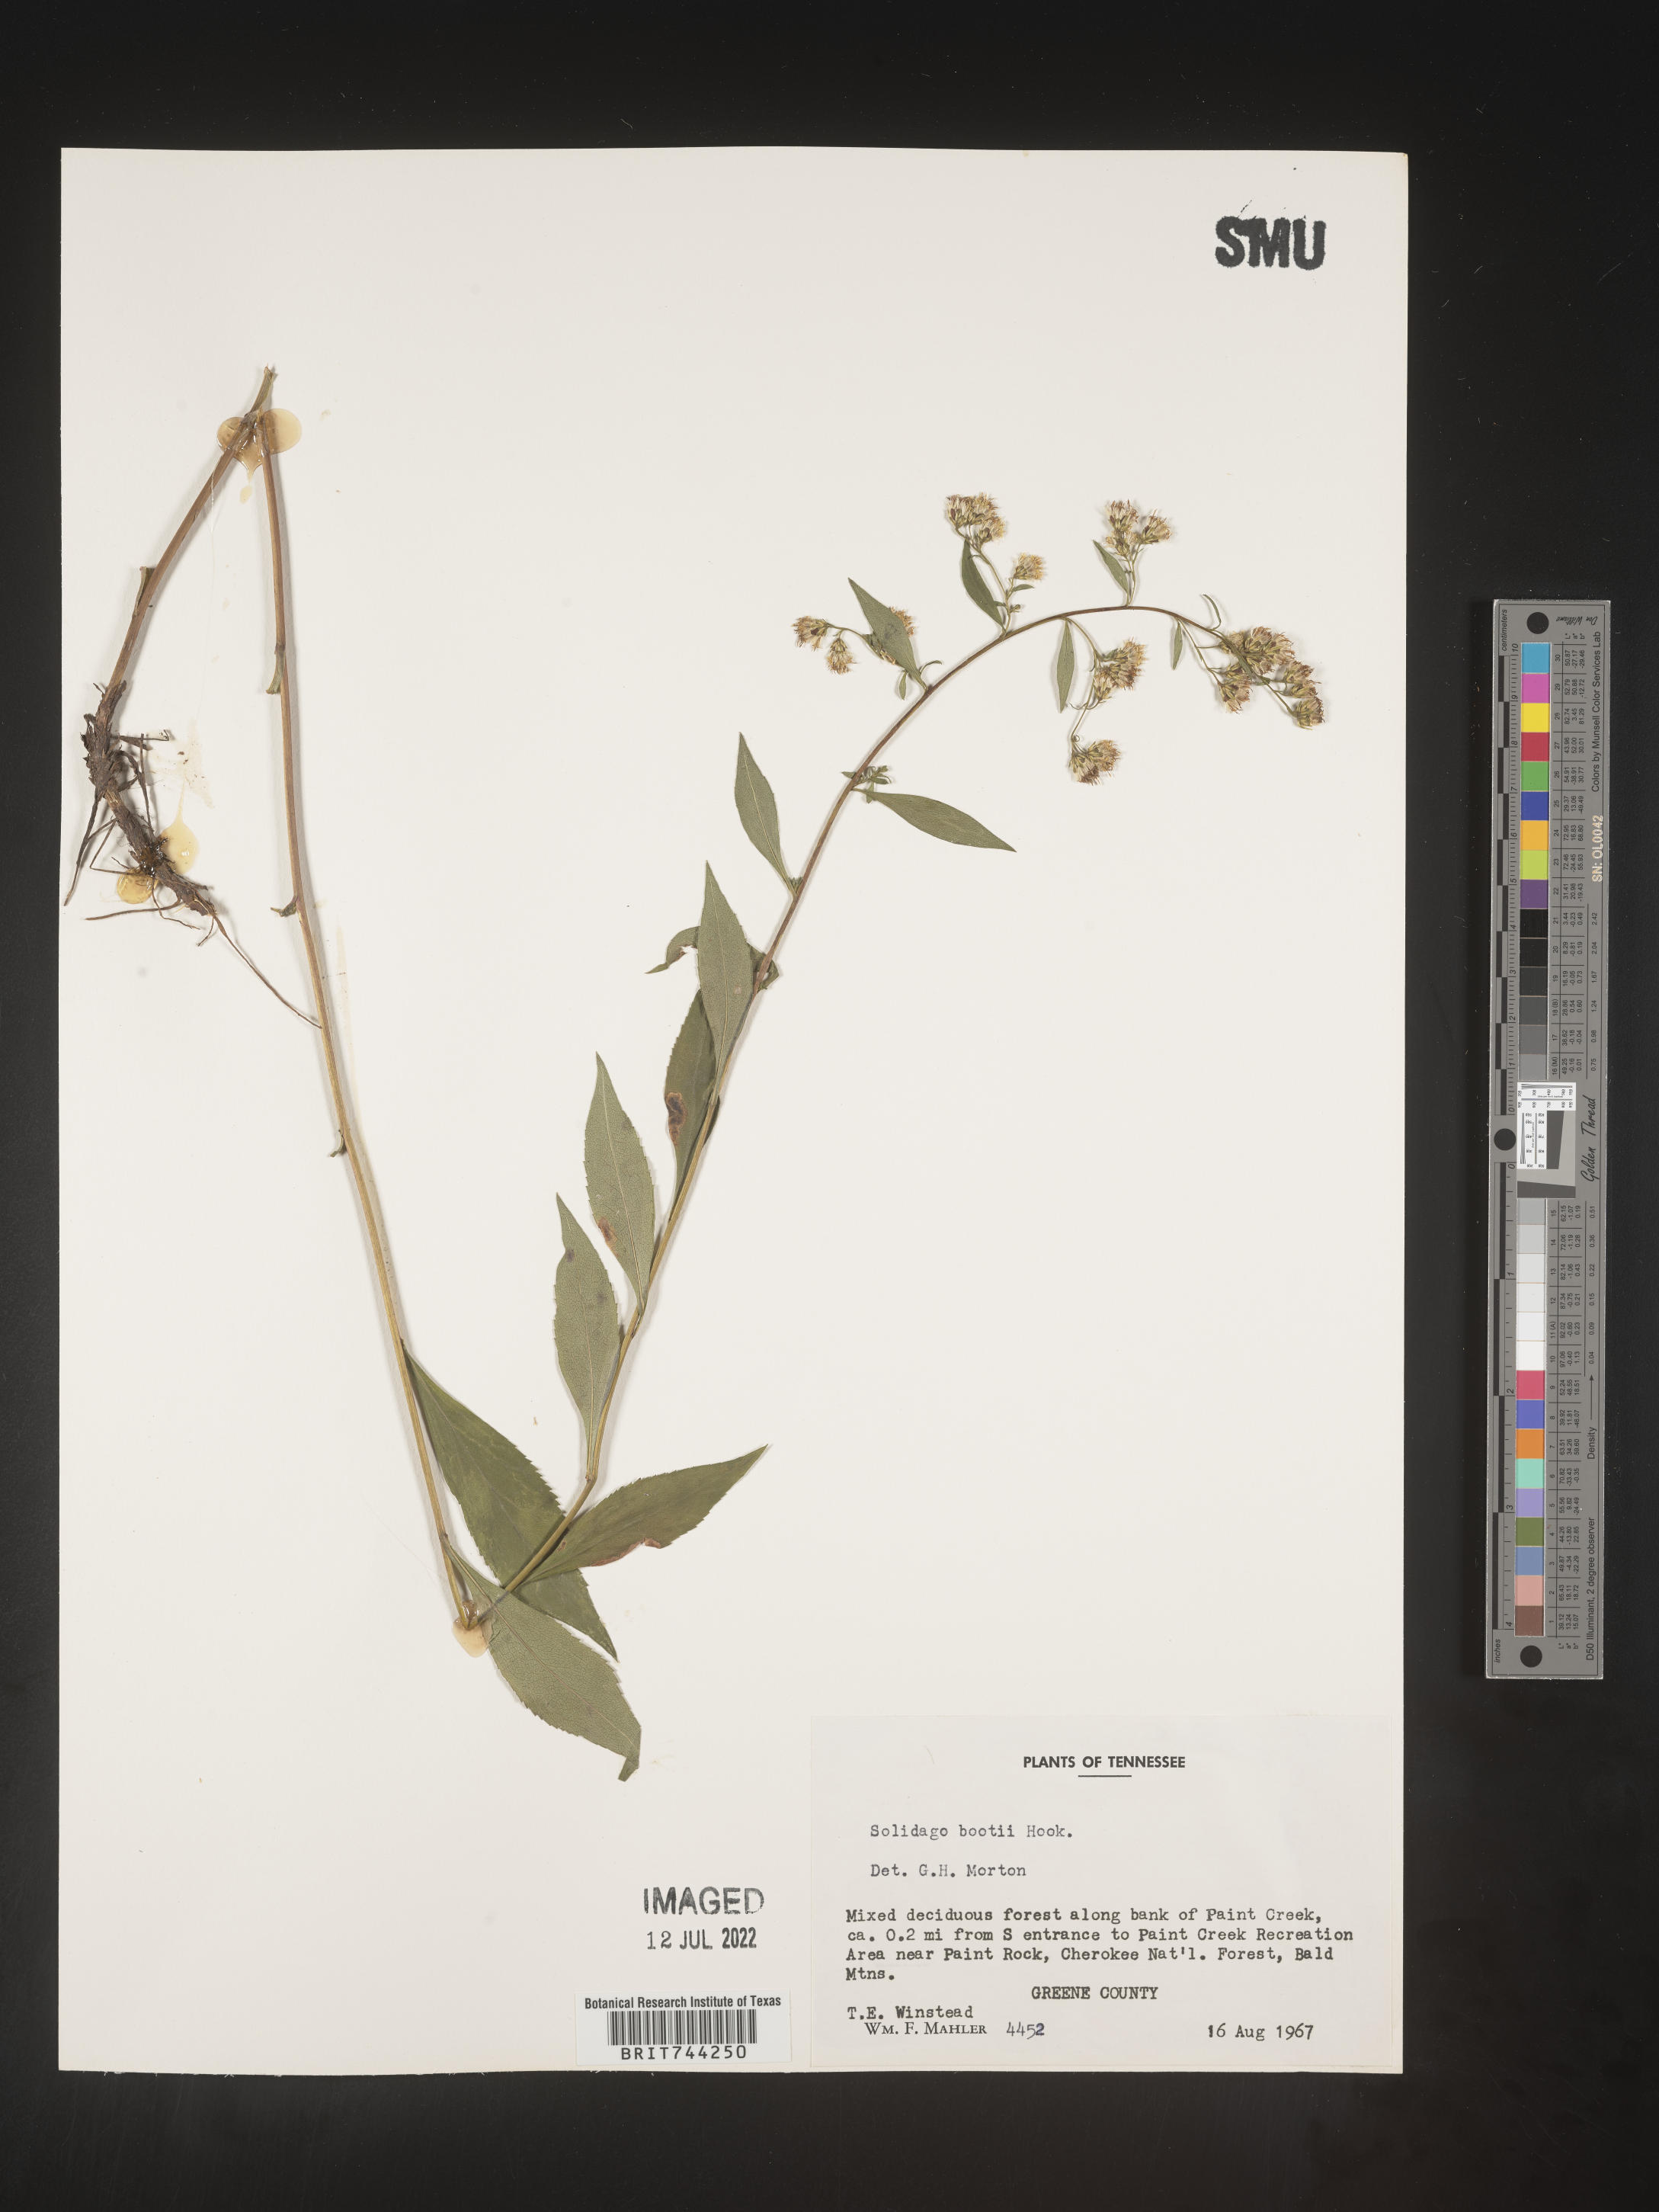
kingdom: Plantae
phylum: Tracheophyta
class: Magnoliopsida
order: Asterales
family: Asteraceae
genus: Solidago
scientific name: Solidago vaseyi
